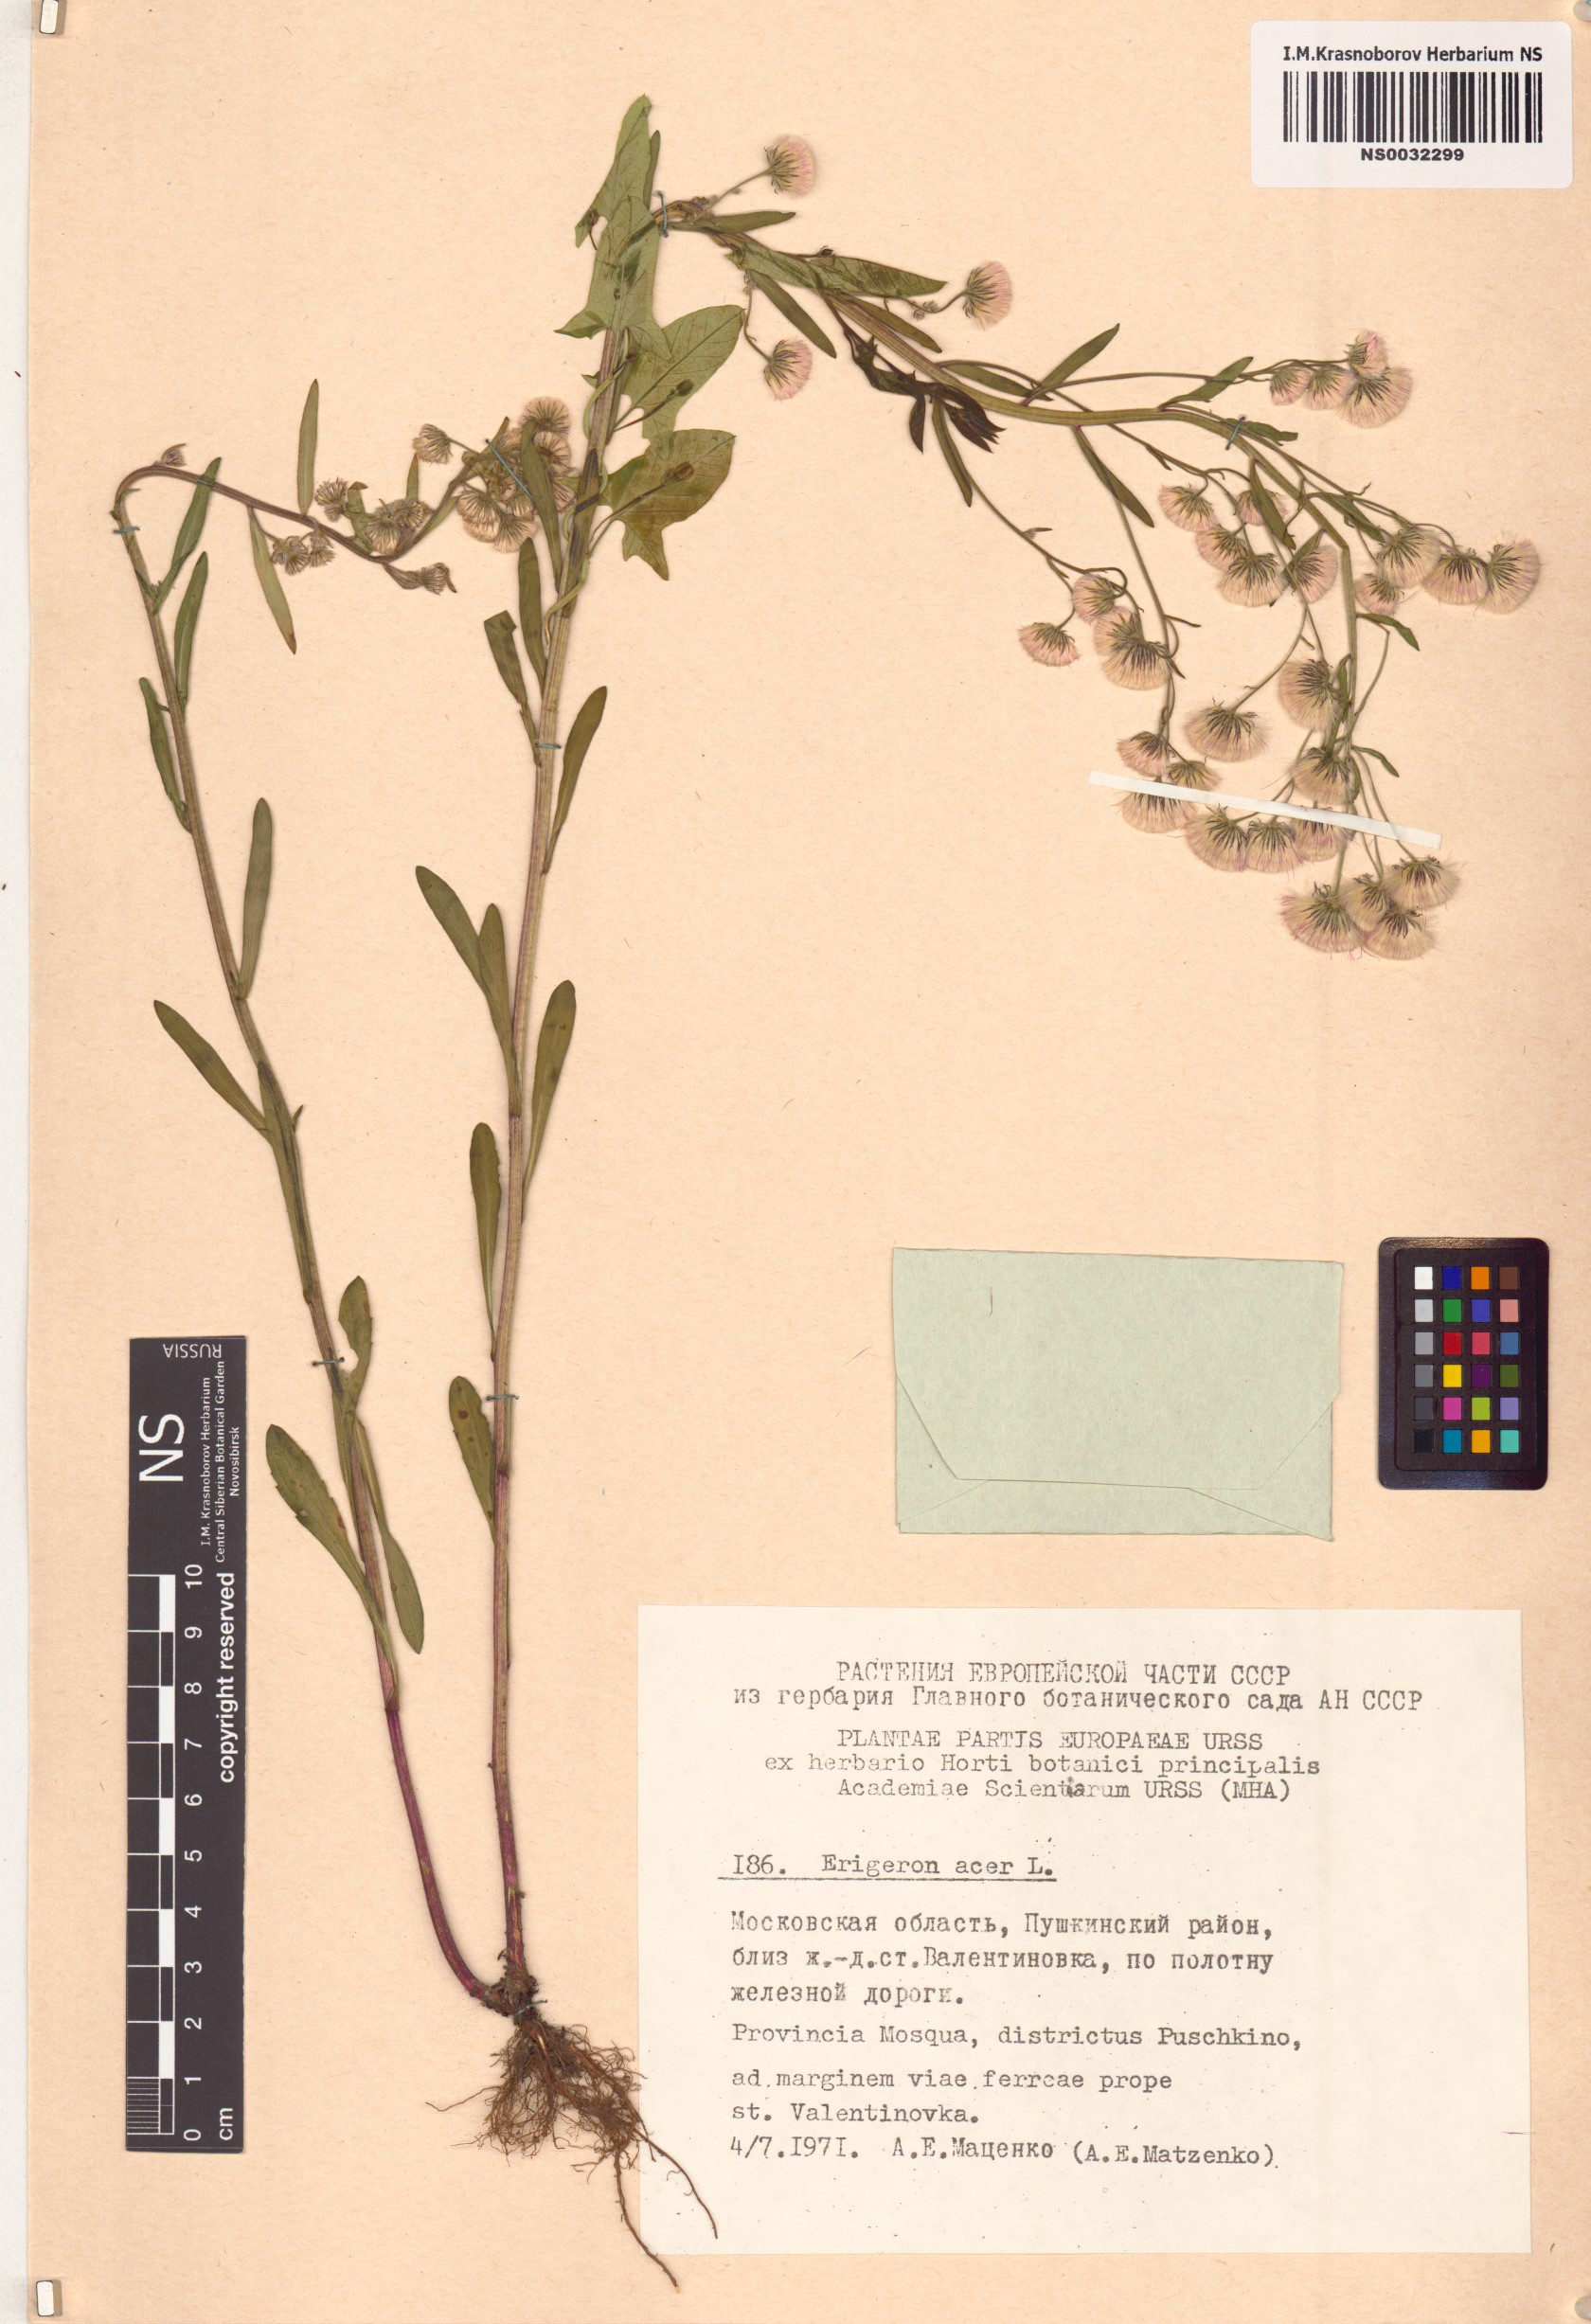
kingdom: Plantae
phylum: Tracheophyta
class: Magnoliopsida
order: Asterales
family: Asteraceae
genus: Erigeron
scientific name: Erigeron acris
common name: Blue fleabane
